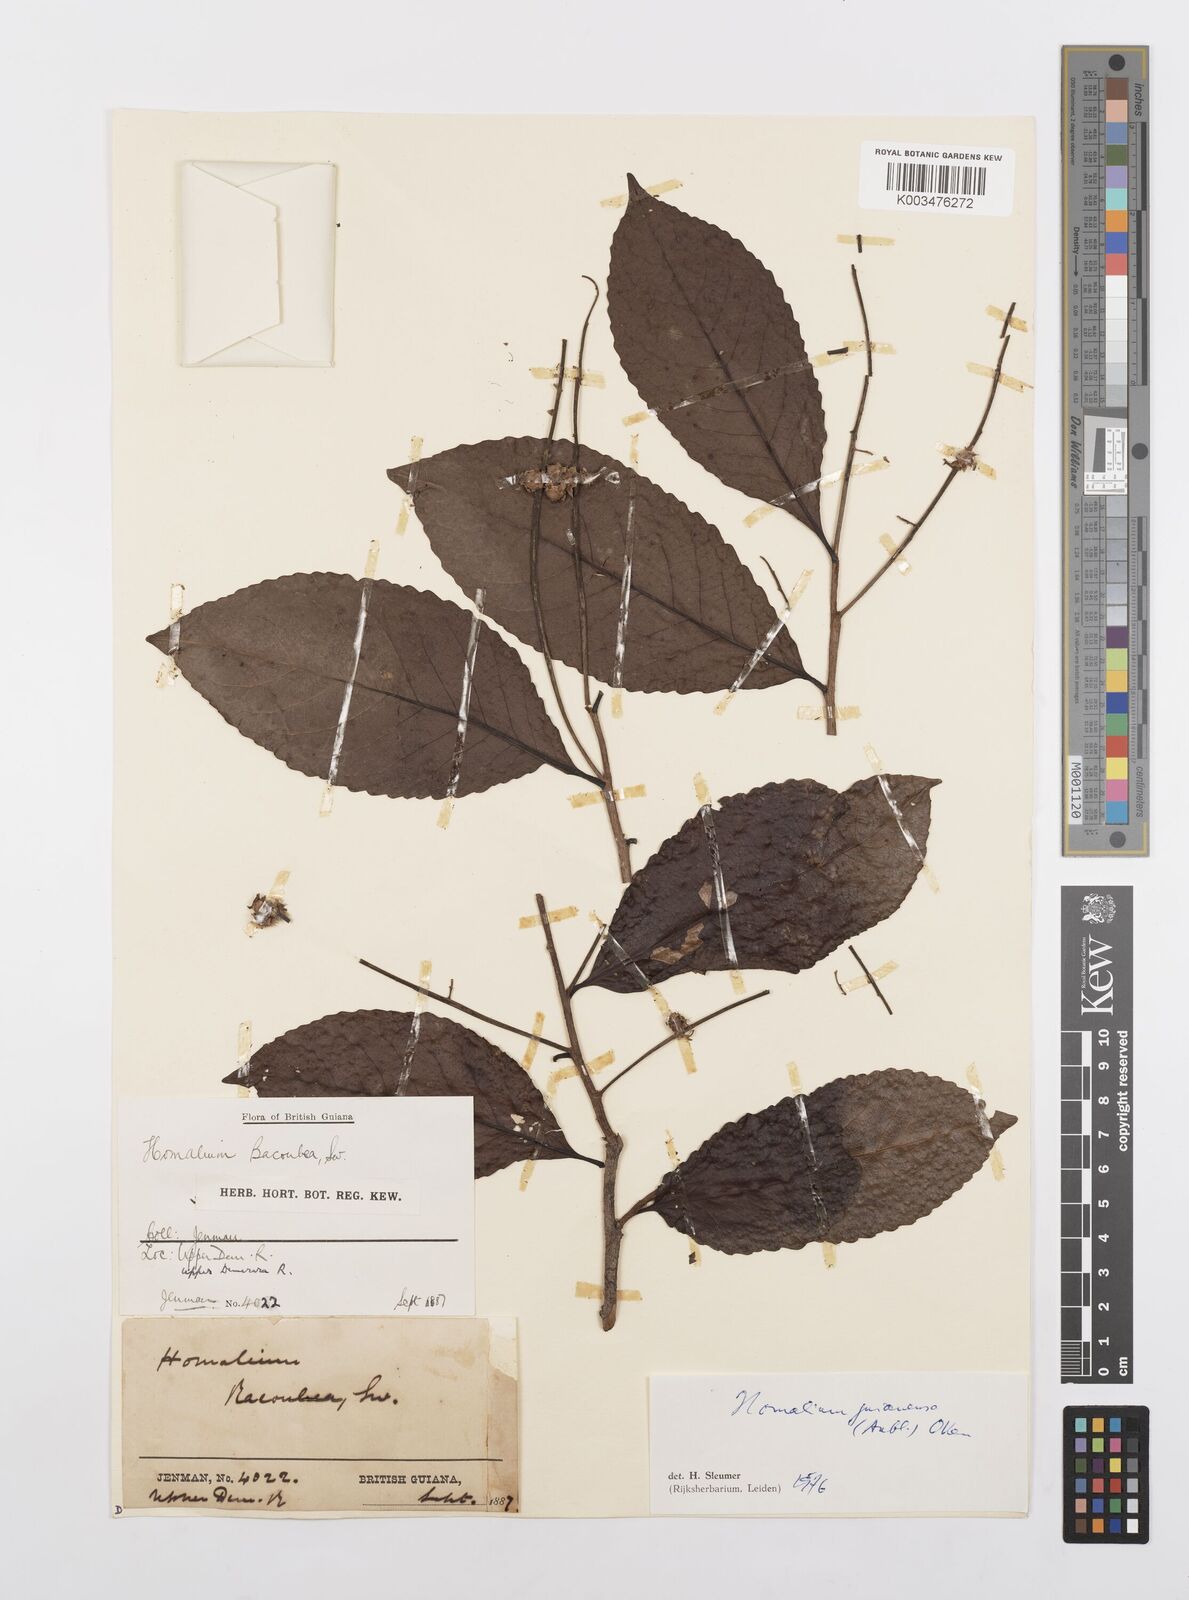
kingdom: Plantae
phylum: Tracheophyta
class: Magnoliopsida
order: Malpighiales
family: Salicaceae
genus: Homalium
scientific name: Homalium guianense
